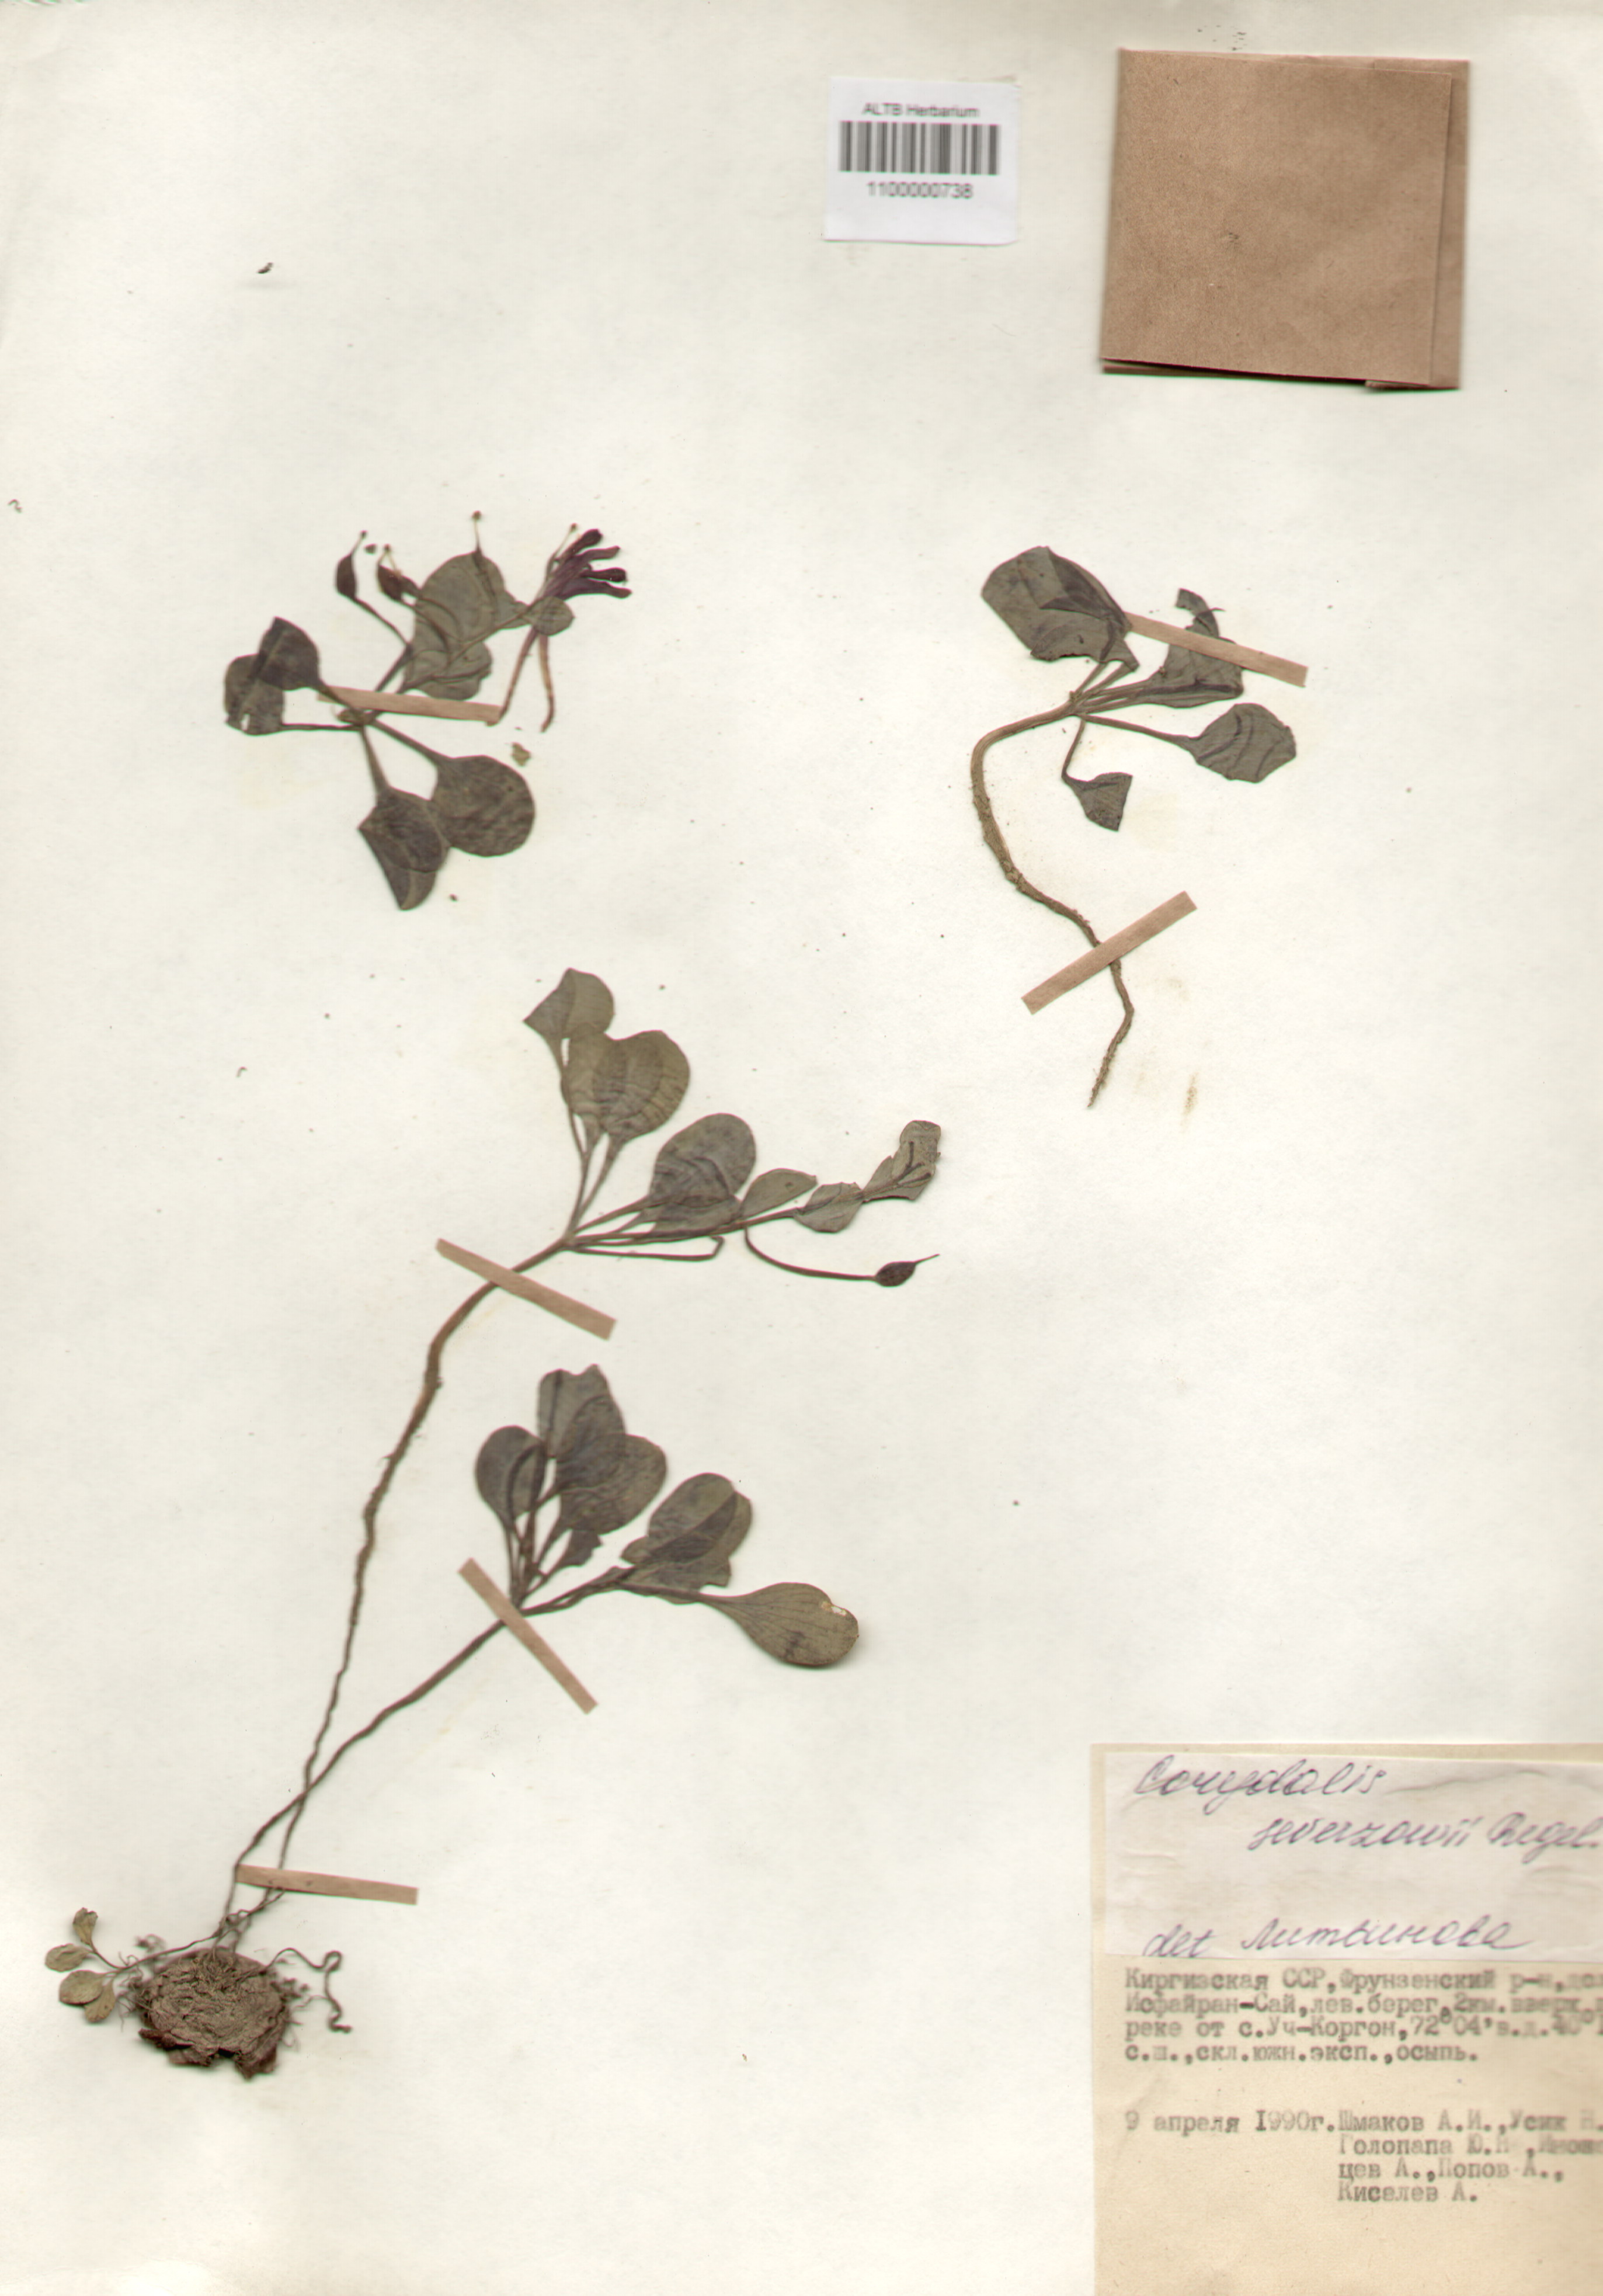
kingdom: Plantae
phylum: Tracheophyta
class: Magnoliopsida
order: Ranunculales
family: Papaveraceae
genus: Corydalis
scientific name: Corydalis sewerzowii
